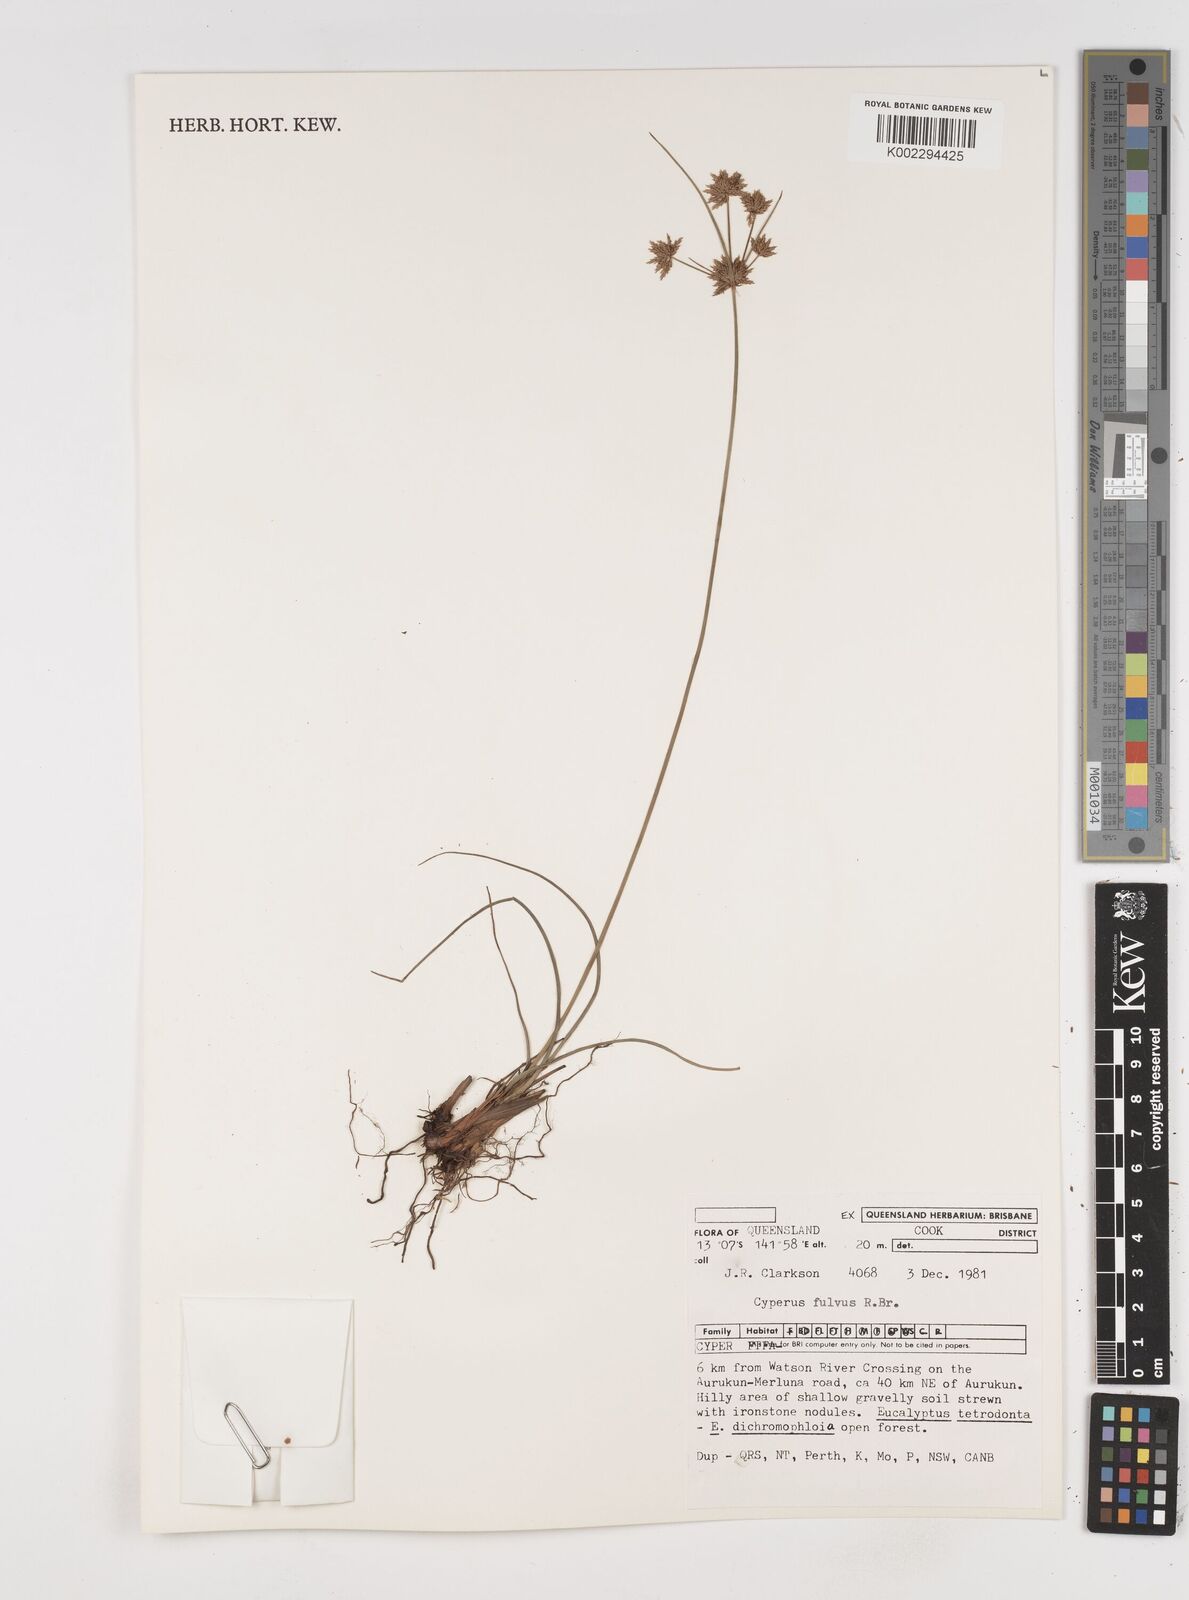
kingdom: Plantae
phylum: Tracheophyta
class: Liliopsida
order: Poales
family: Cyperaceae
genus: Cyperus
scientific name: Cyperus fulvus
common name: Sticky sedge
